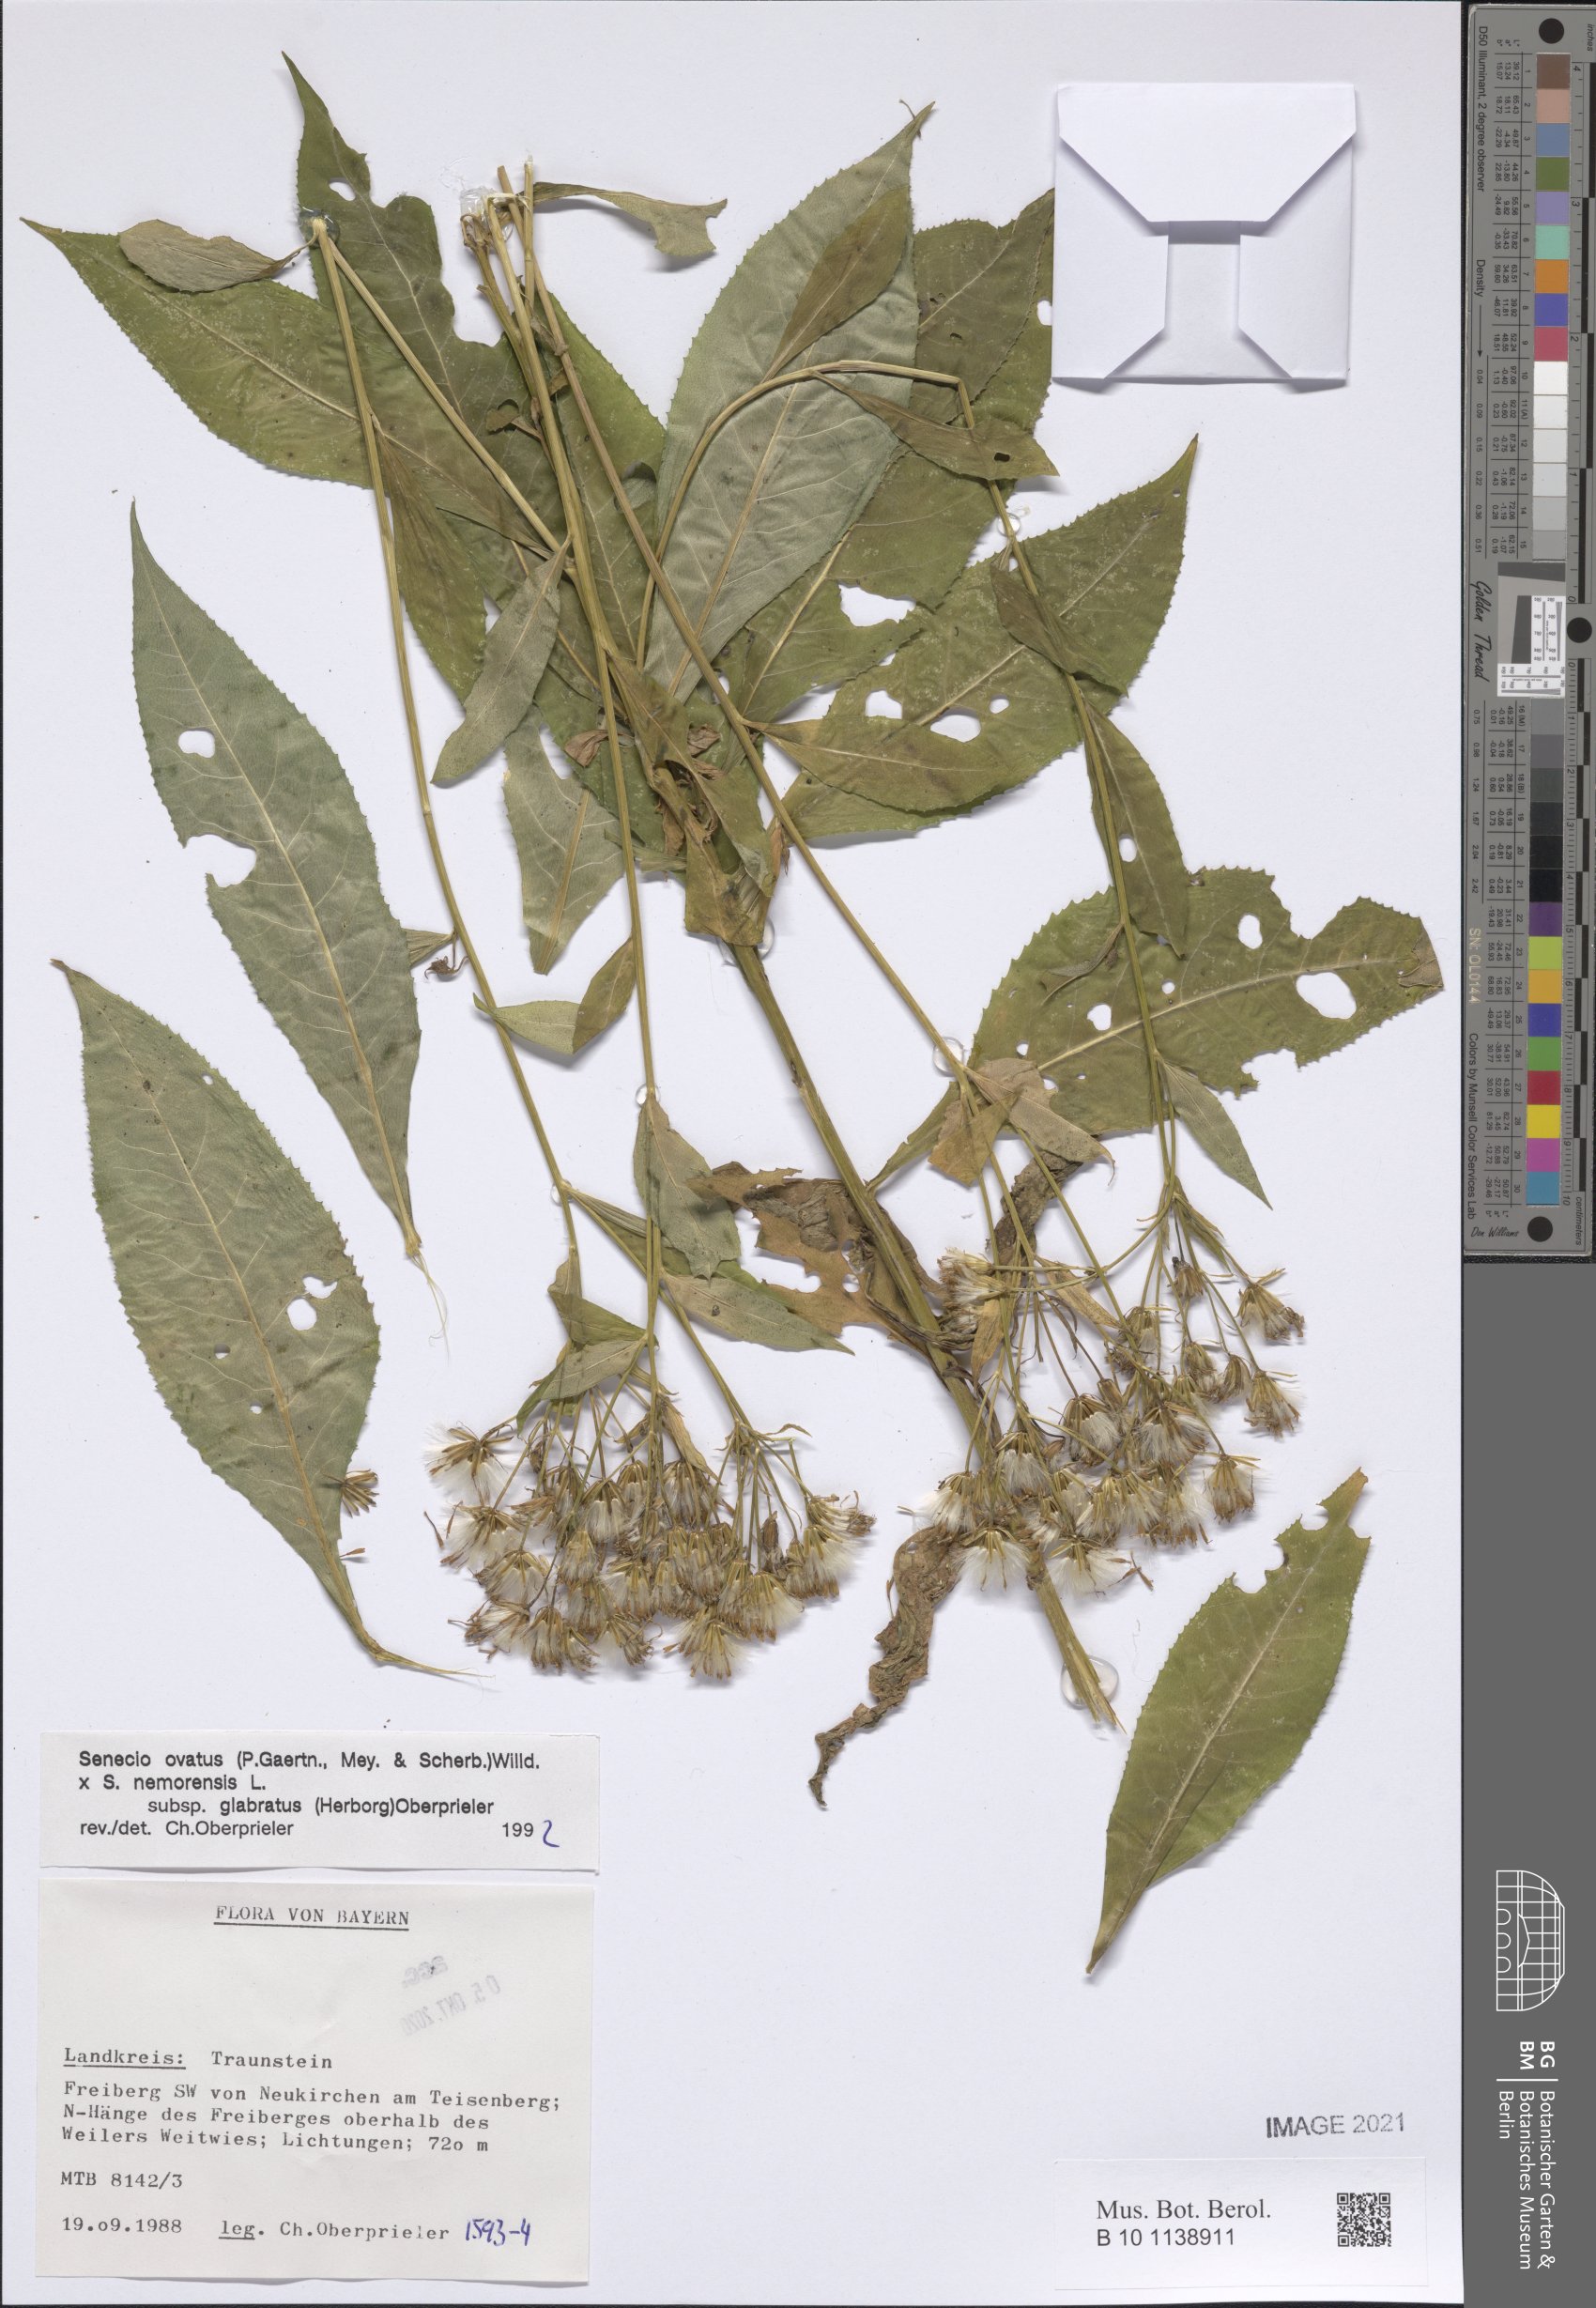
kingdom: Plantae
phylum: Tracheophyta
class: Magnoliopsida
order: Asterales
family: Asteraceae
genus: Senecio
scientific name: Senecio ovatus
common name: Wood ragwort
